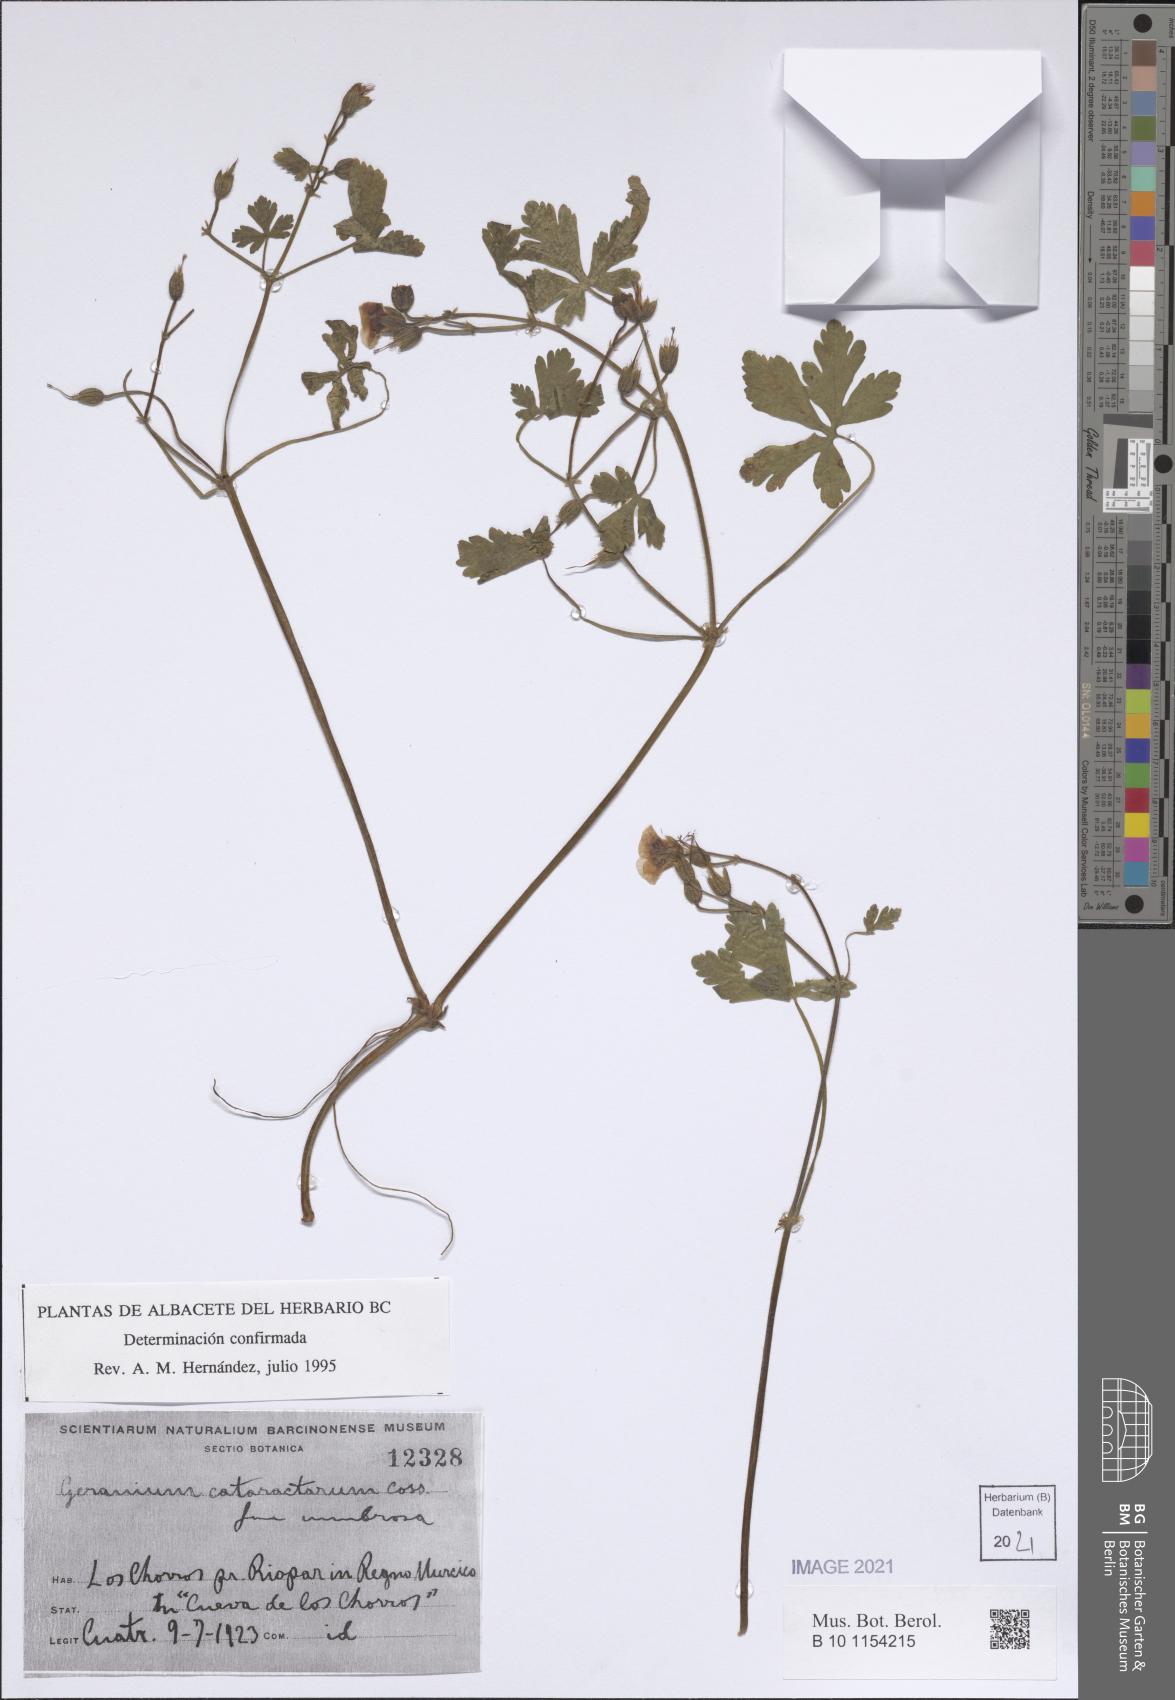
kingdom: Plantae
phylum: Tracheophyta
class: Magnoliopsida
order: Geraniales
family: Geraniaceae
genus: Geranium
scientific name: Geranium cataractarum
